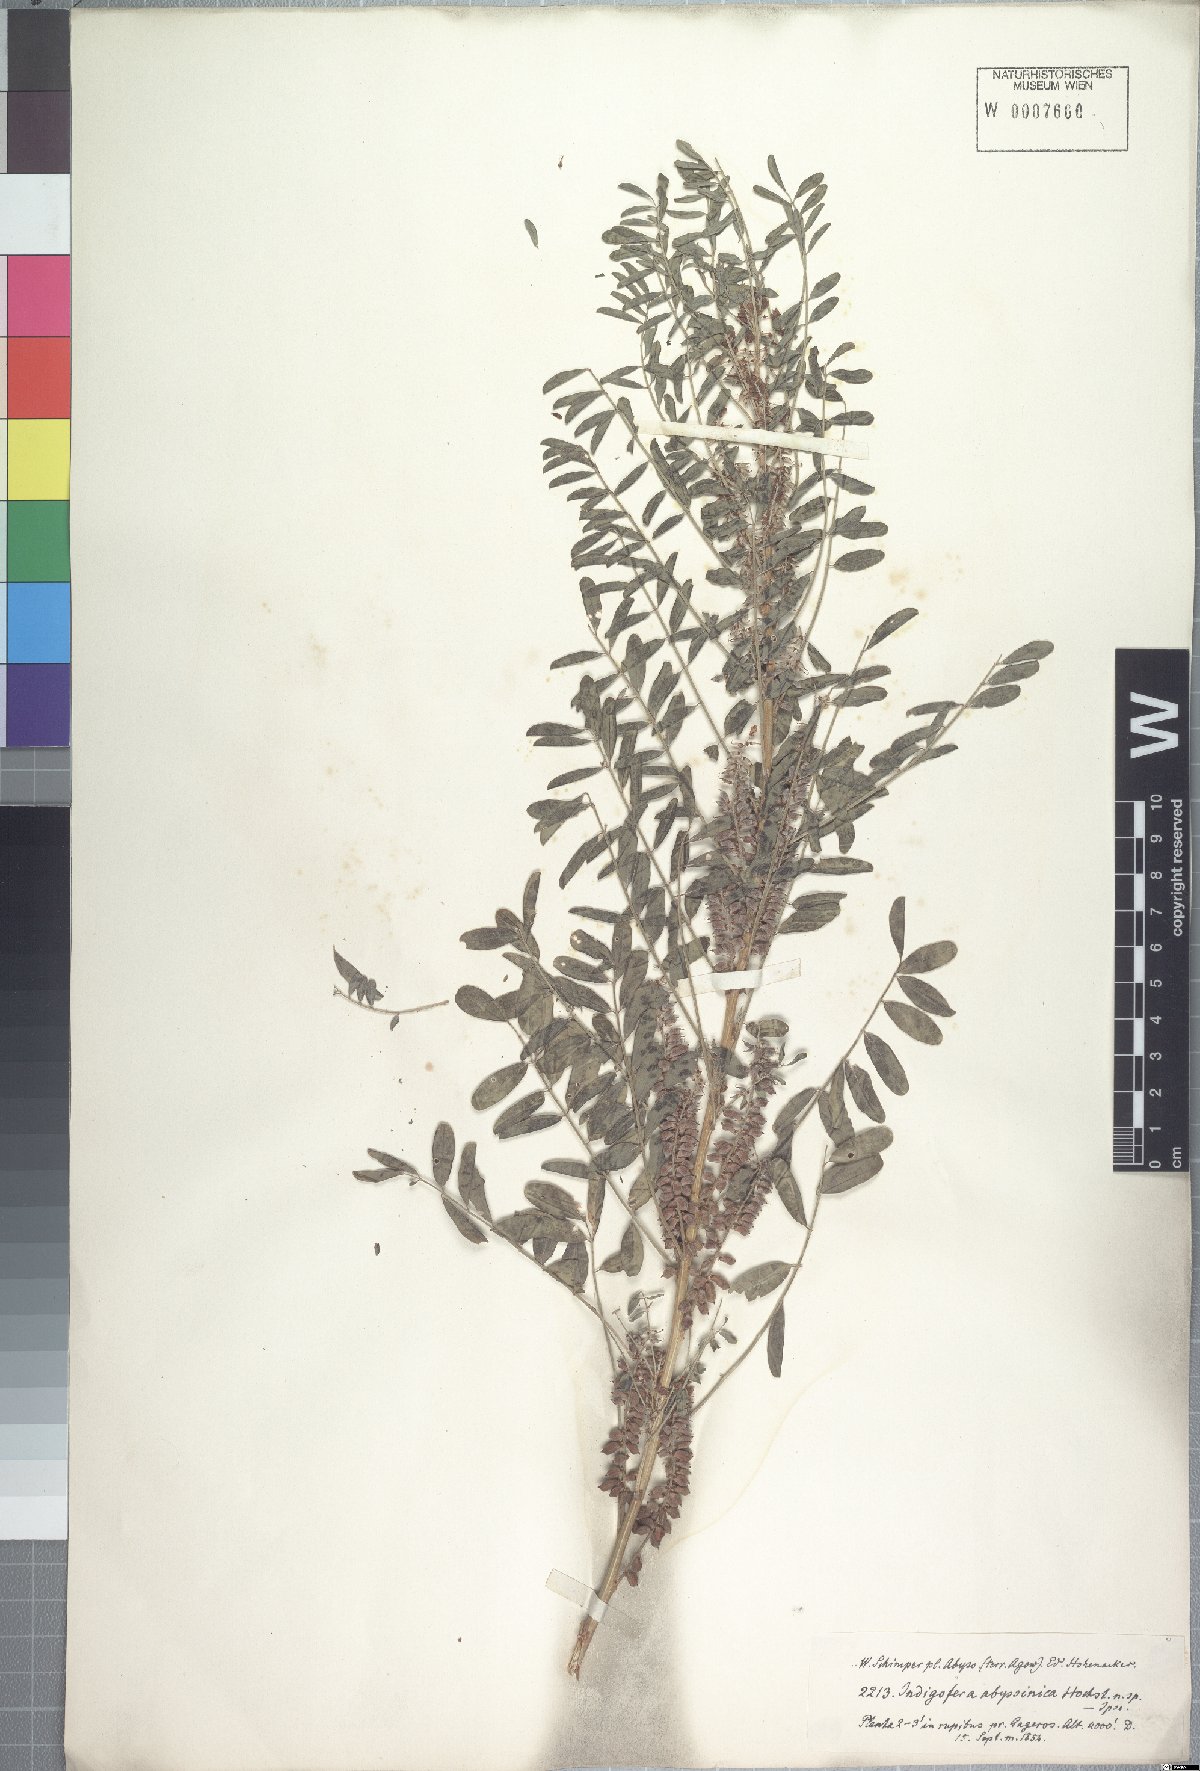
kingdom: Plantae
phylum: Tracheophyta
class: Magnoliopsida
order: Fabales
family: Fabaceae
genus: Indigofera
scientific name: Indigofera amorphoides
